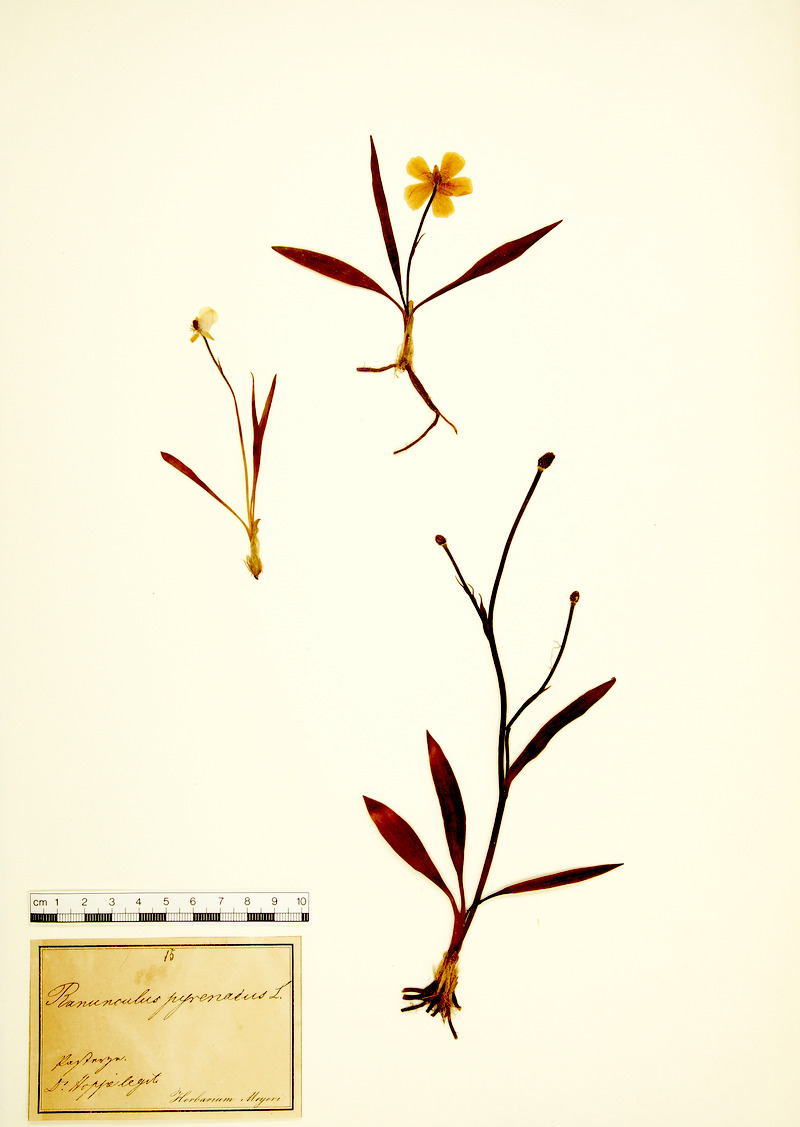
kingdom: Plantae
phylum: Tracheophyta
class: Magnoliopsida
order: Ranunculales
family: Ranunculaceae
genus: Ranunculus
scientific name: Ranunculus pyrenaeus
